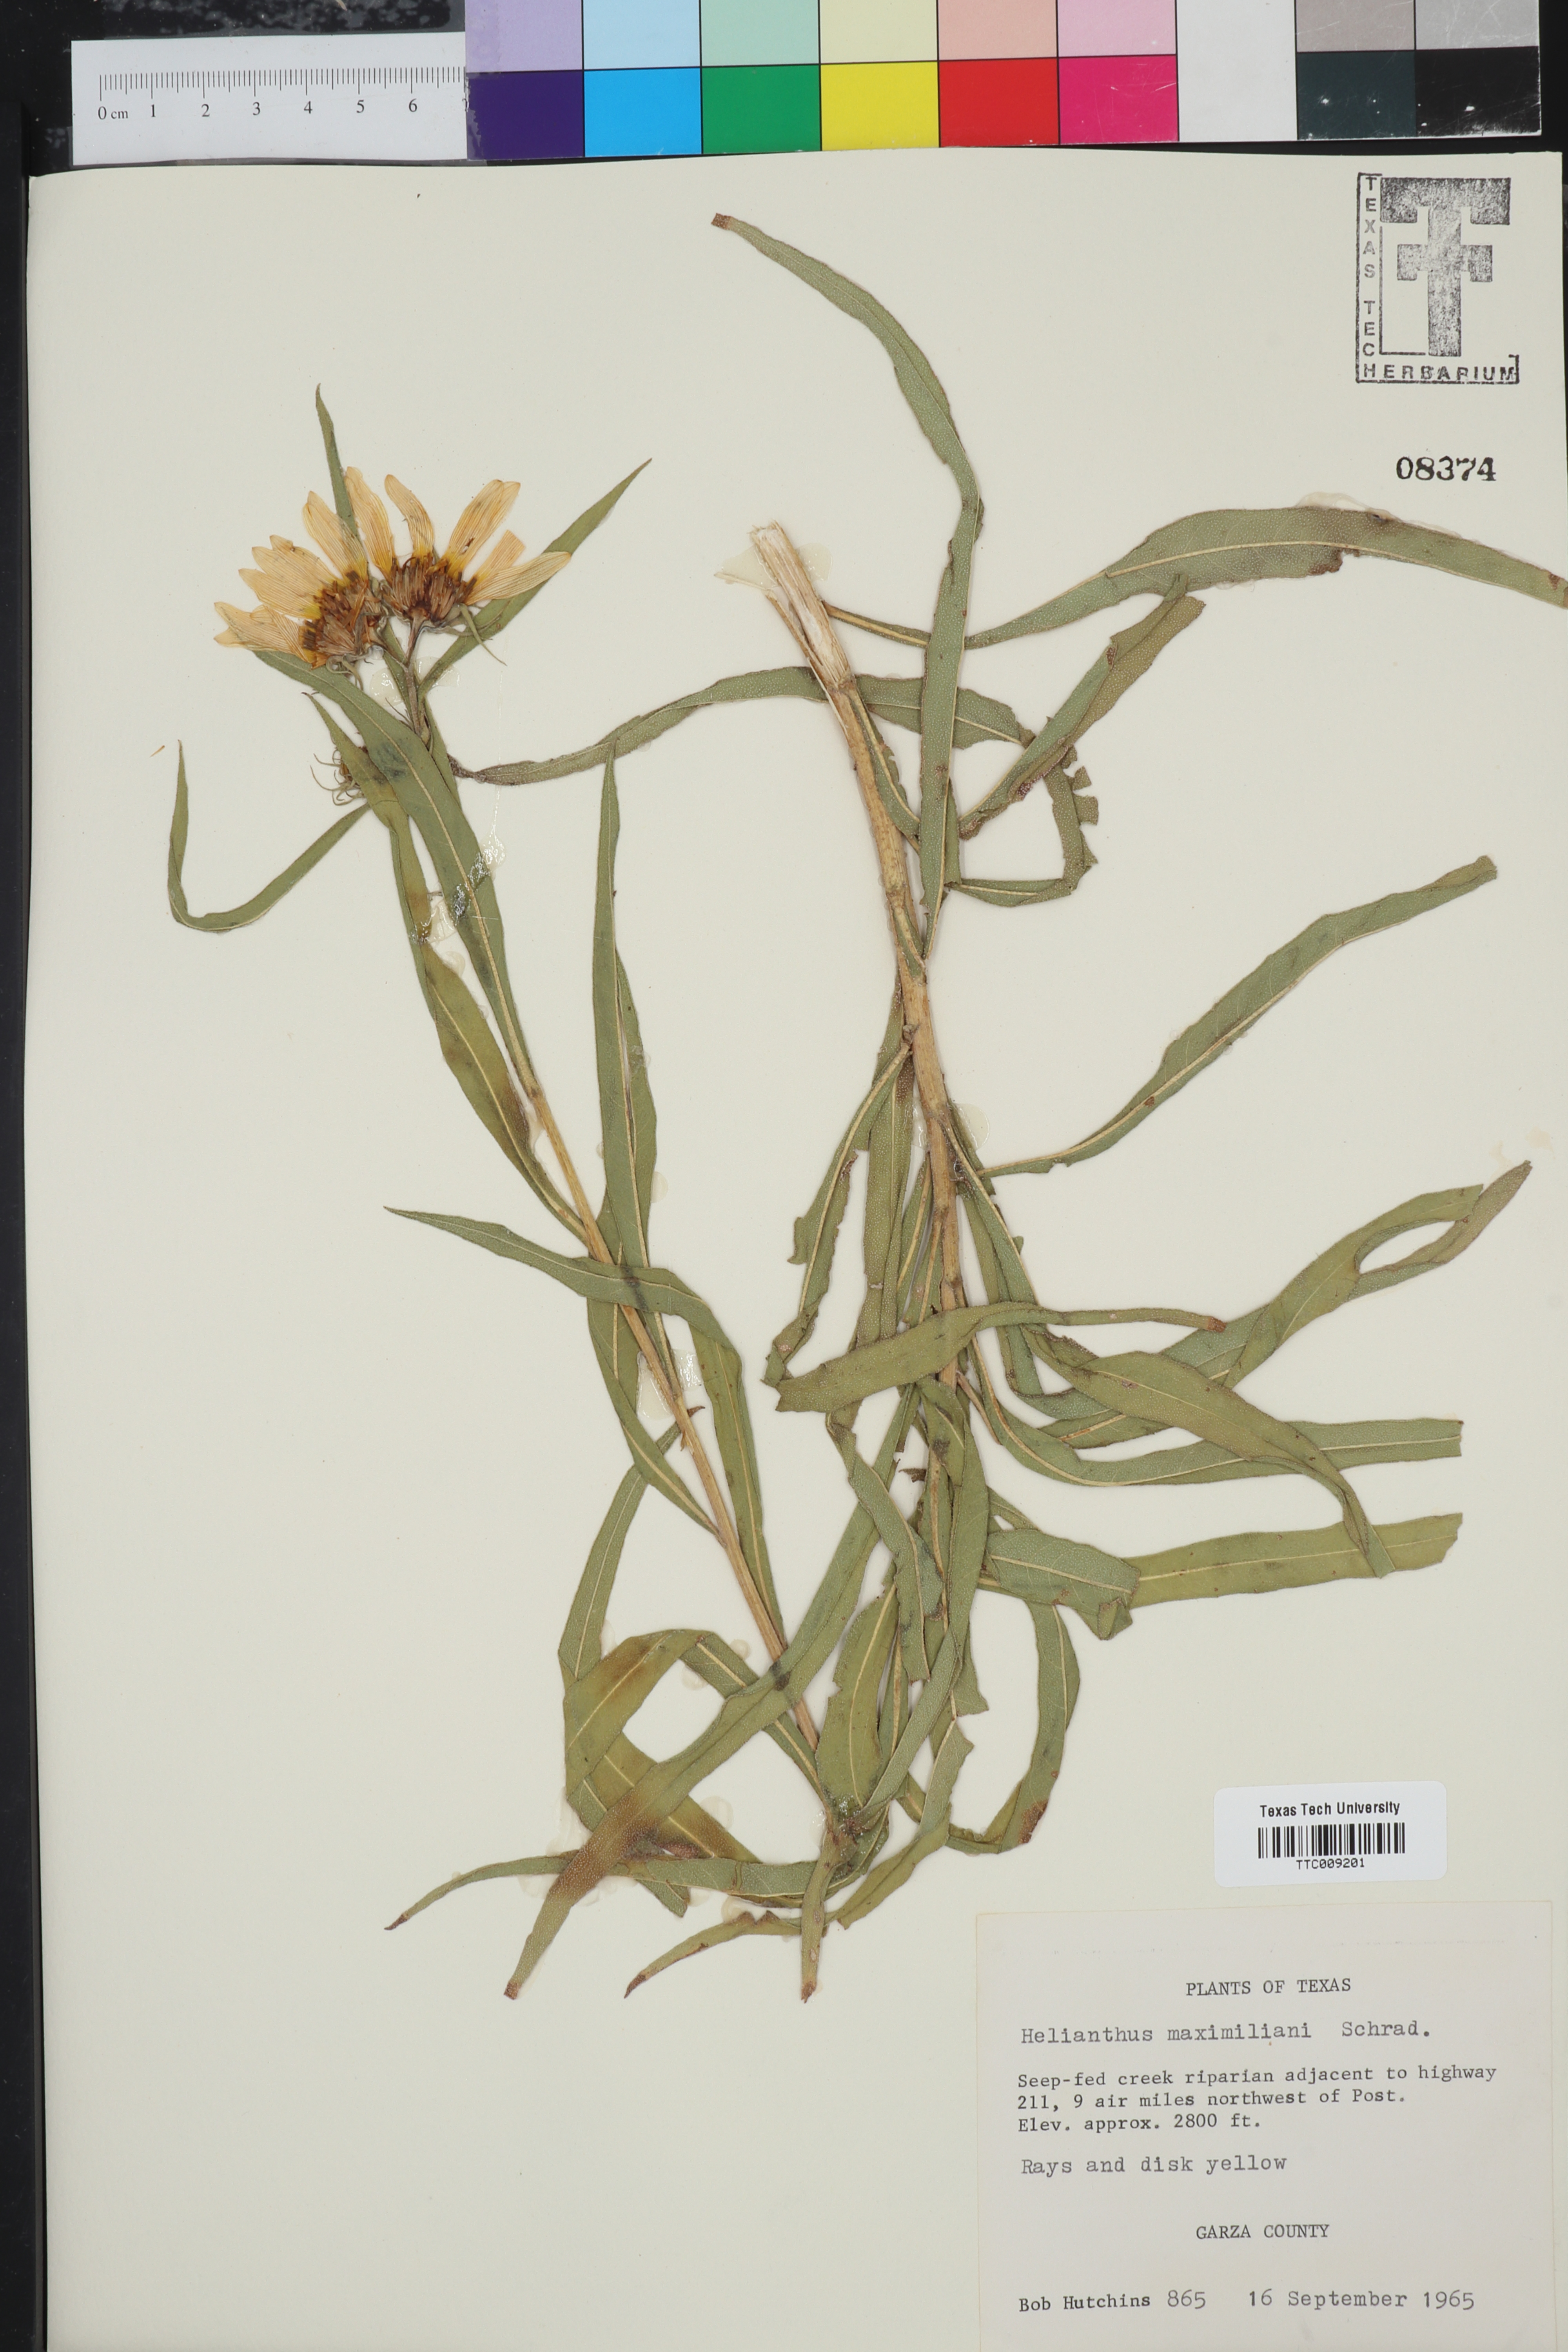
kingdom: Plantae
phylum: Tracheophyta
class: Magnoliopsida
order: Asterales
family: Asteraceae
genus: Helianthus
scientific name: Helianthus maximiliani
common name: Maximilian's sunflower
